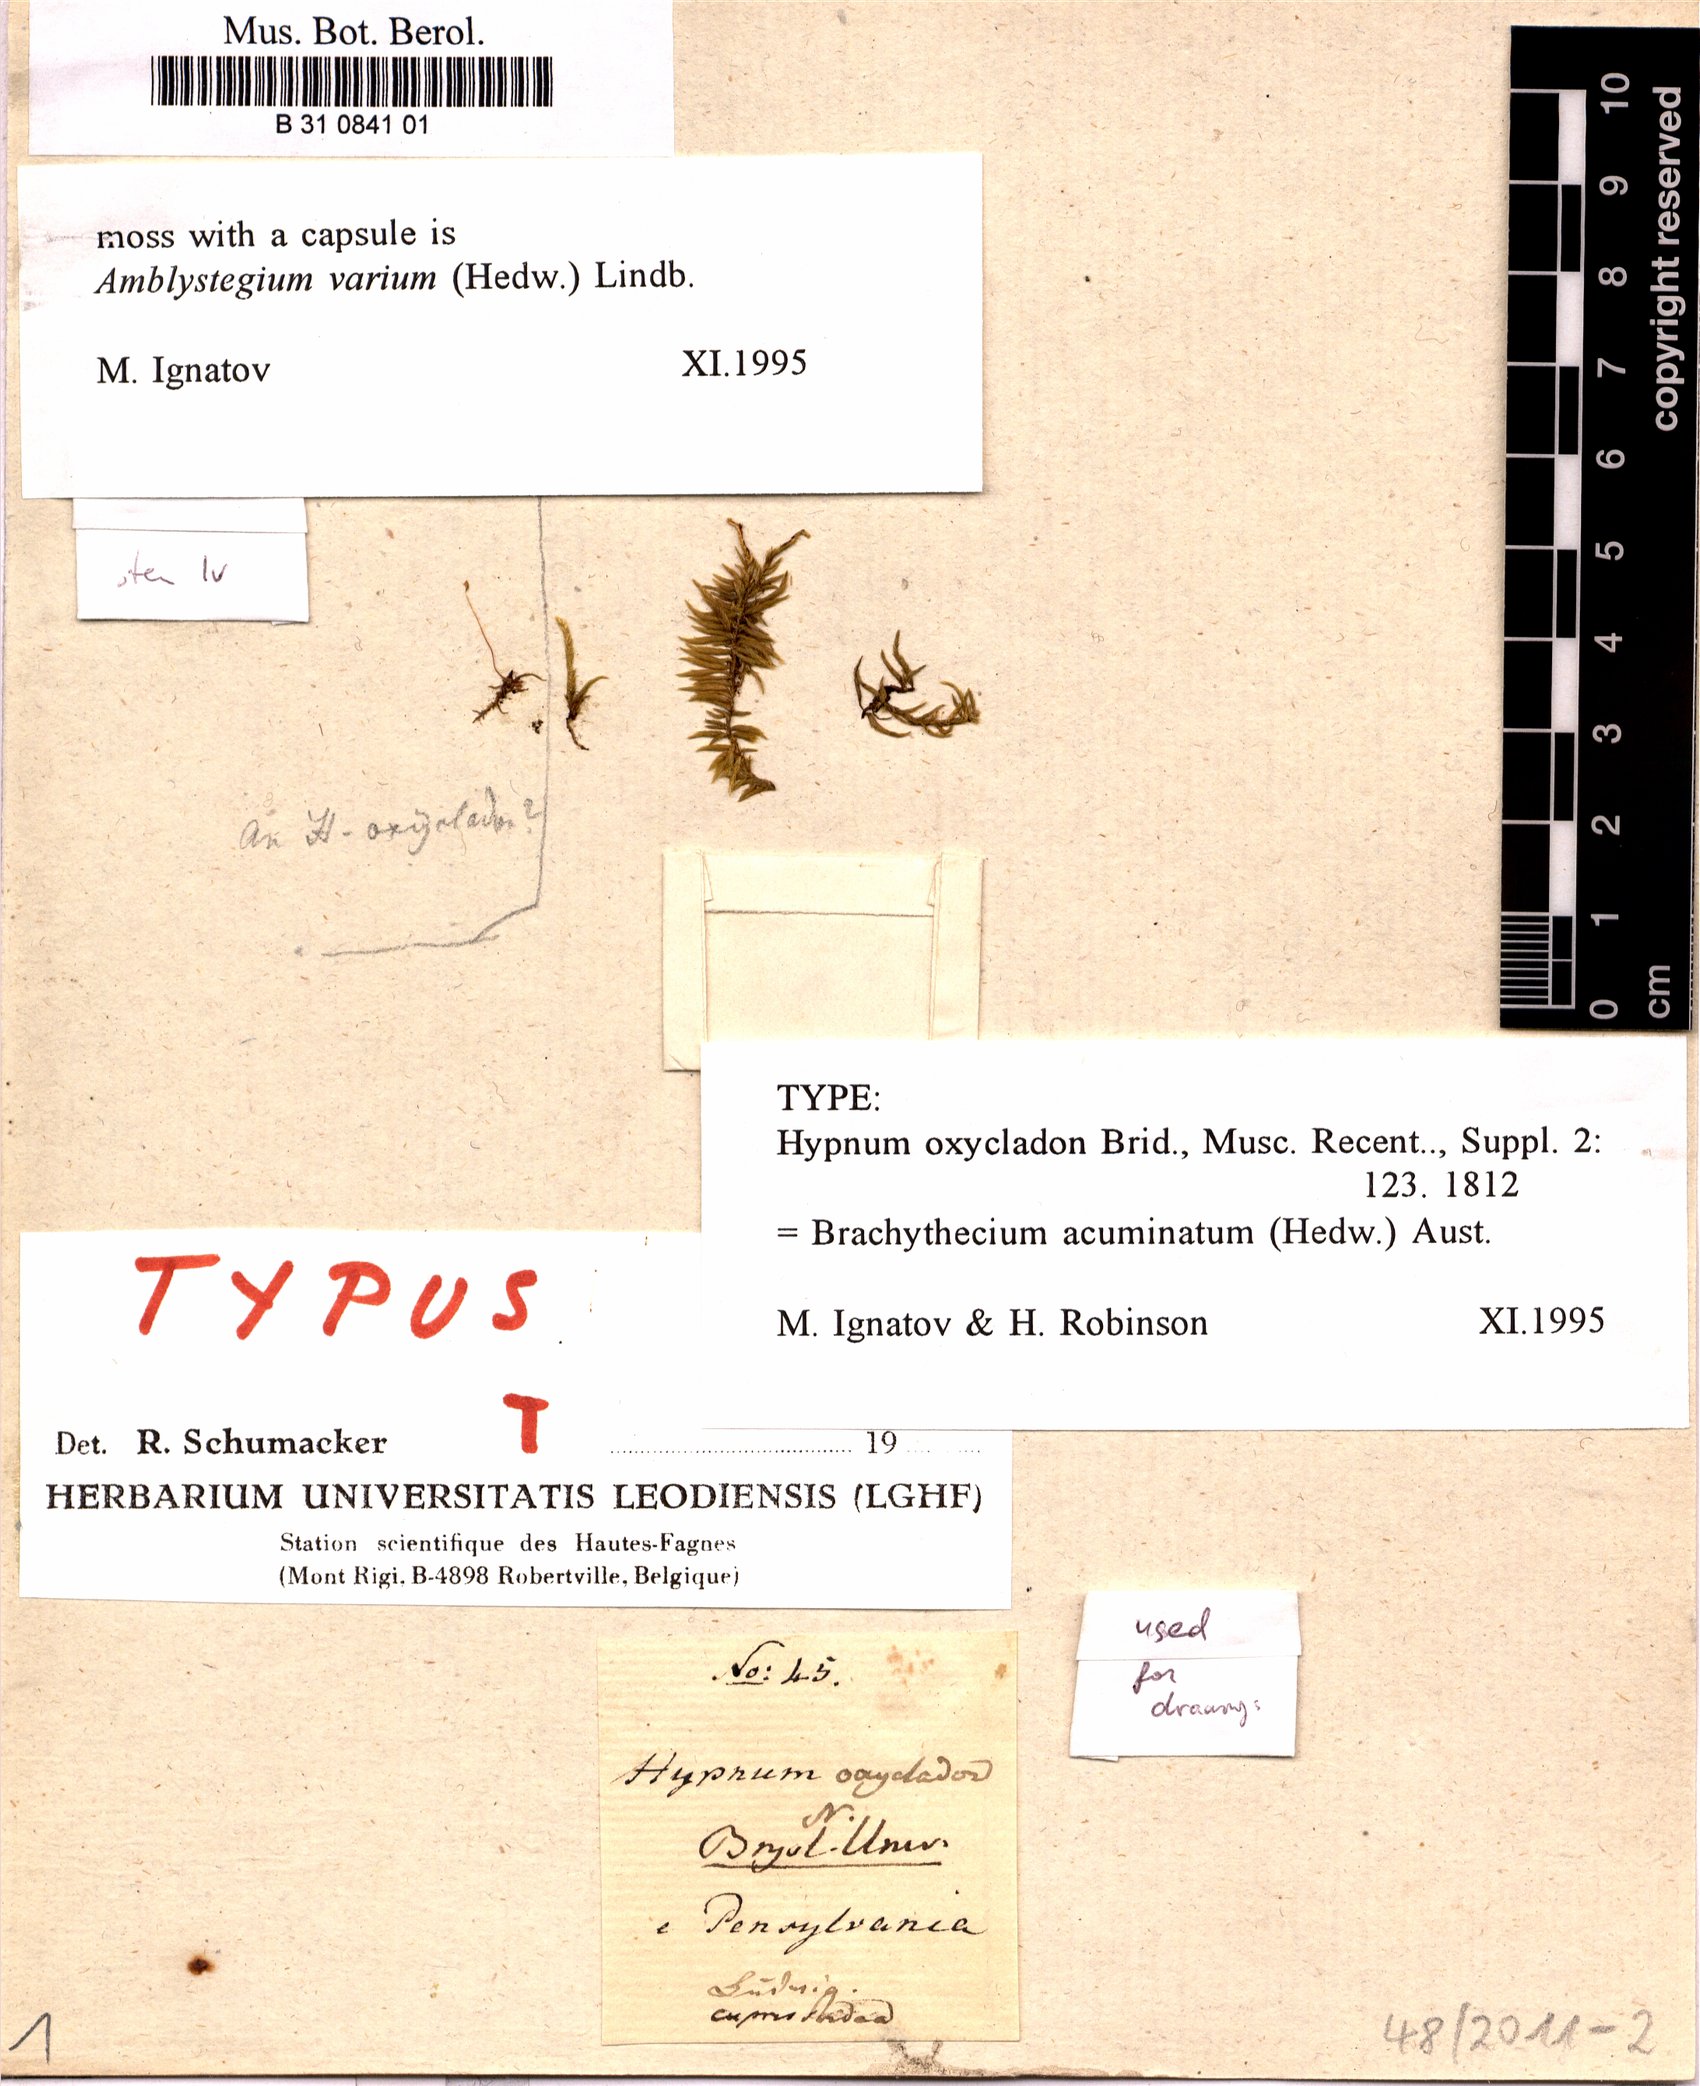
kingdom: Plantae
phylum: Bryophyta
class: Bryopsida
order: Hypnales
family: Brachytheciaceae
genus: Brachythecium
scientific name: Brachythecium acuminatum
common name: Acuminate ragged moss
